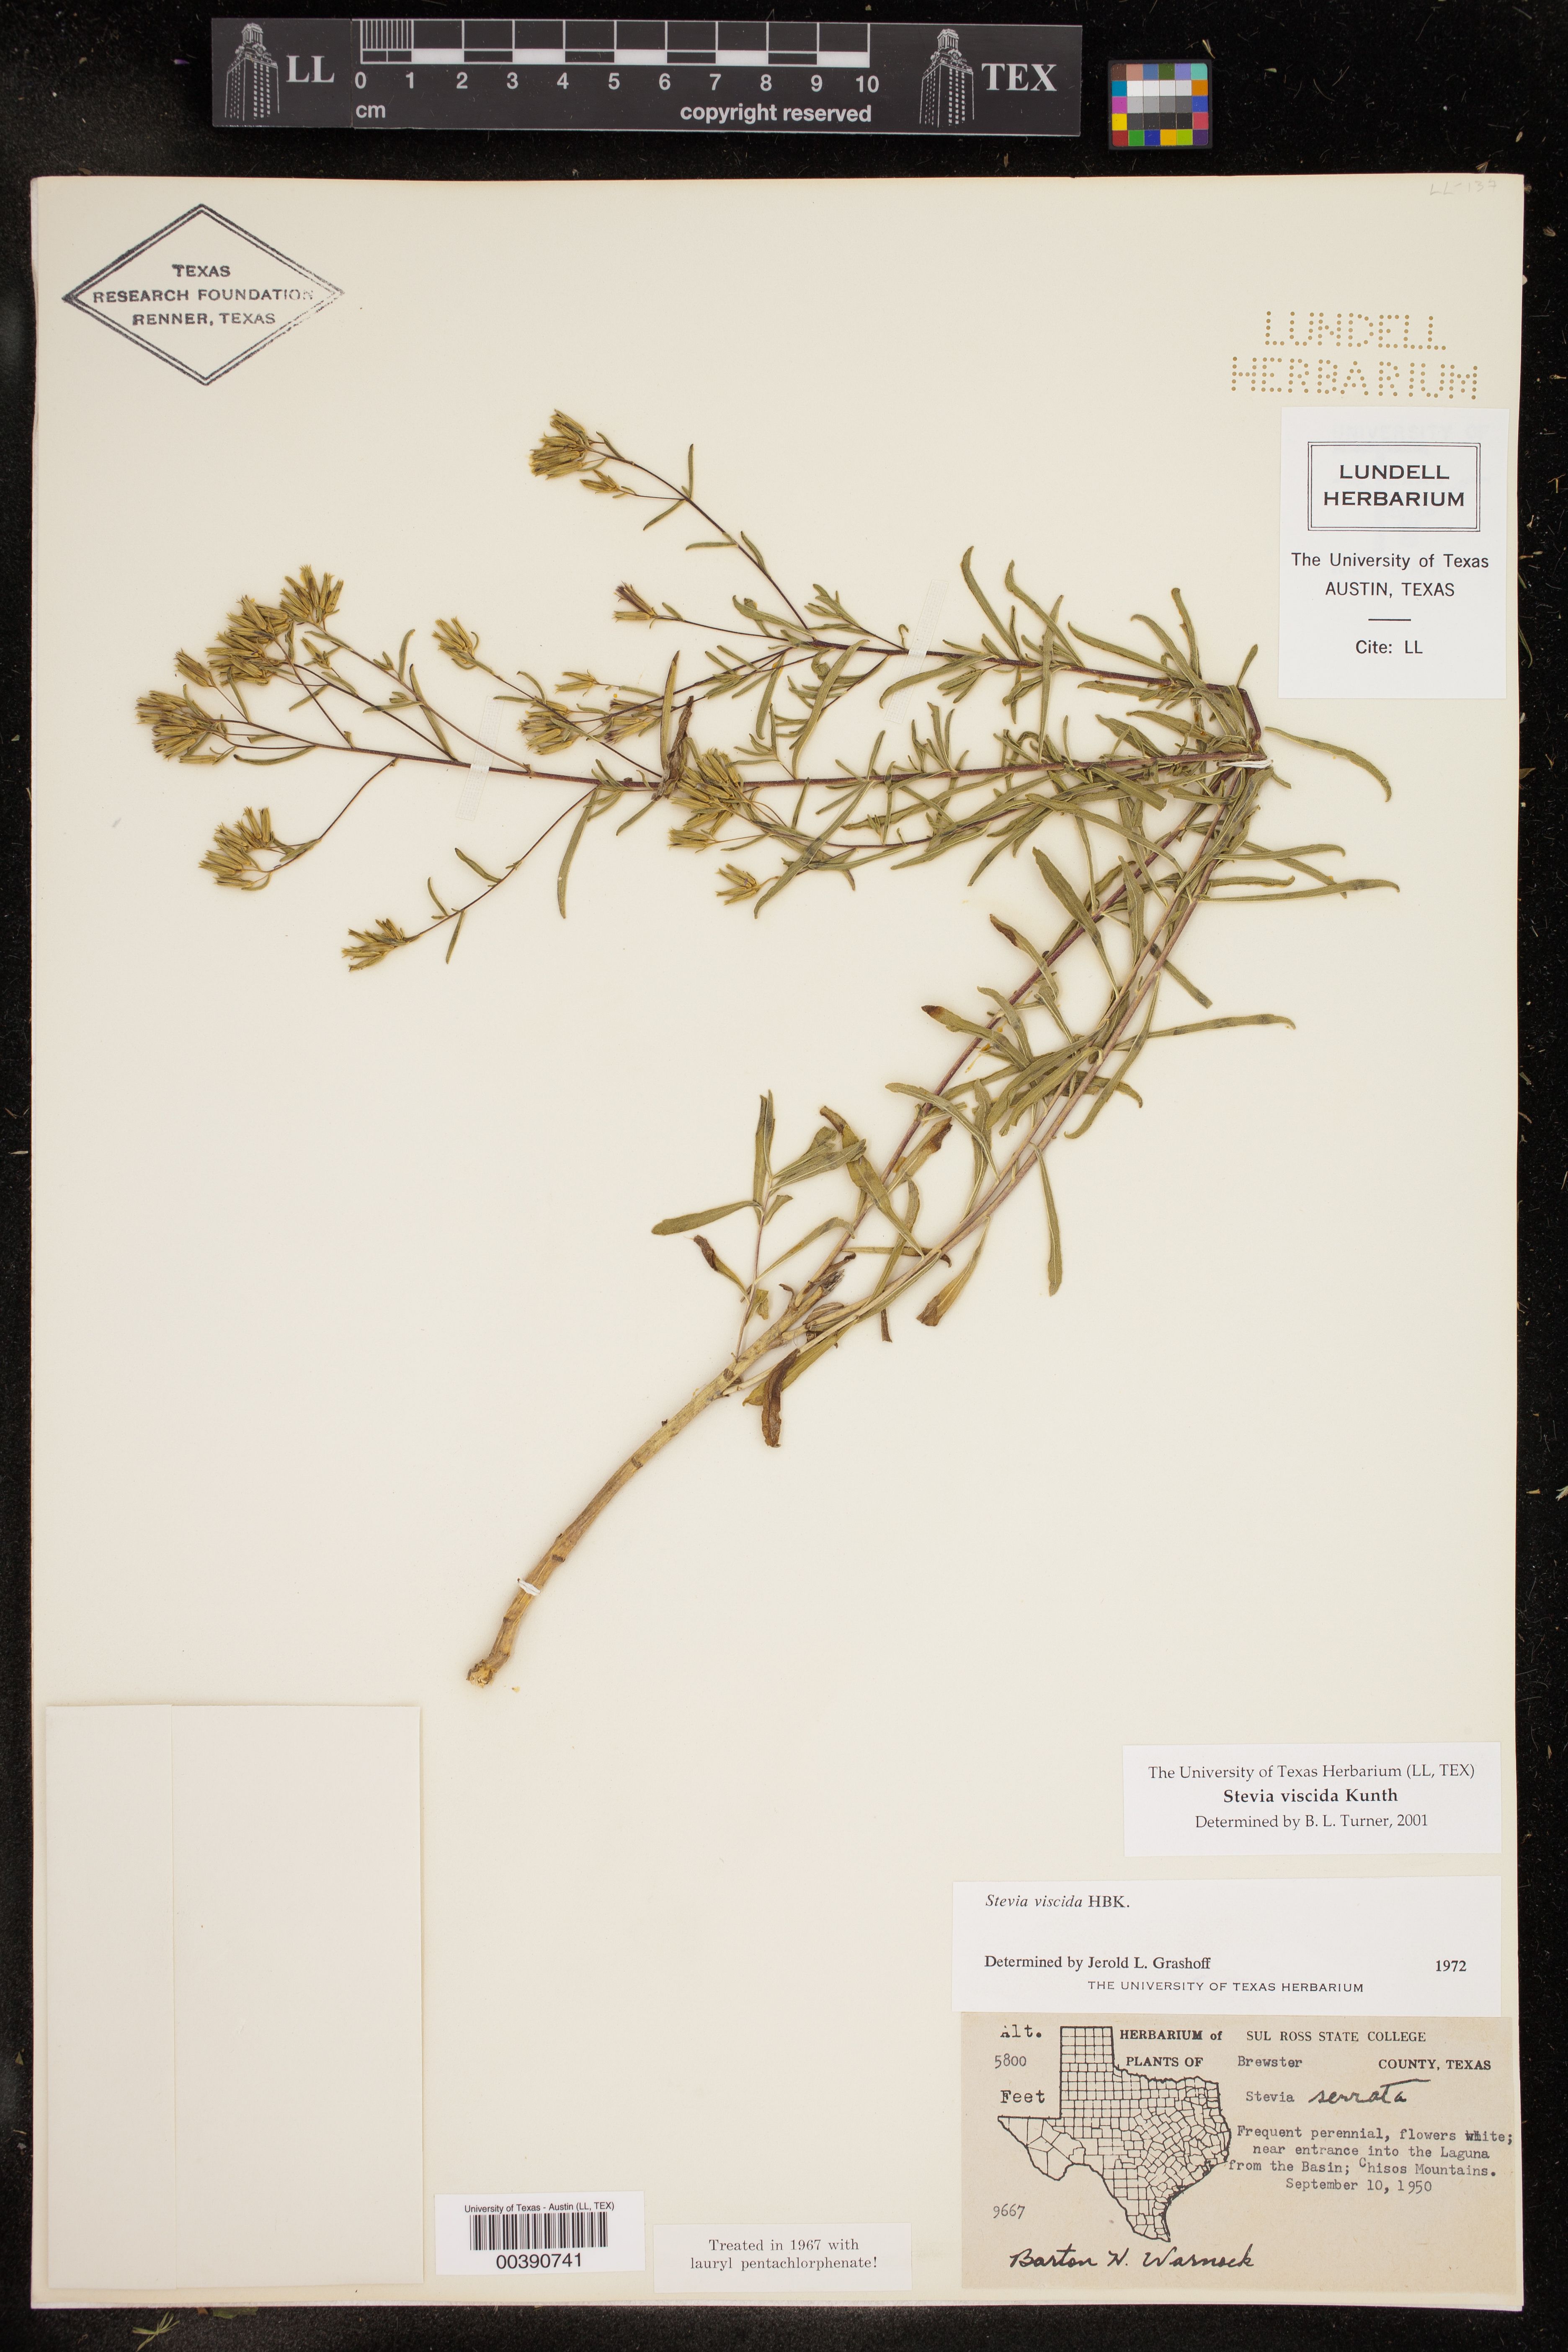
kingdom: Plantae
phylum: Tracheophyta
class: Magnoliopsida
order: Asterales
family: Asteraceae
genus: Stevia
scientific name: Stevia viscida
